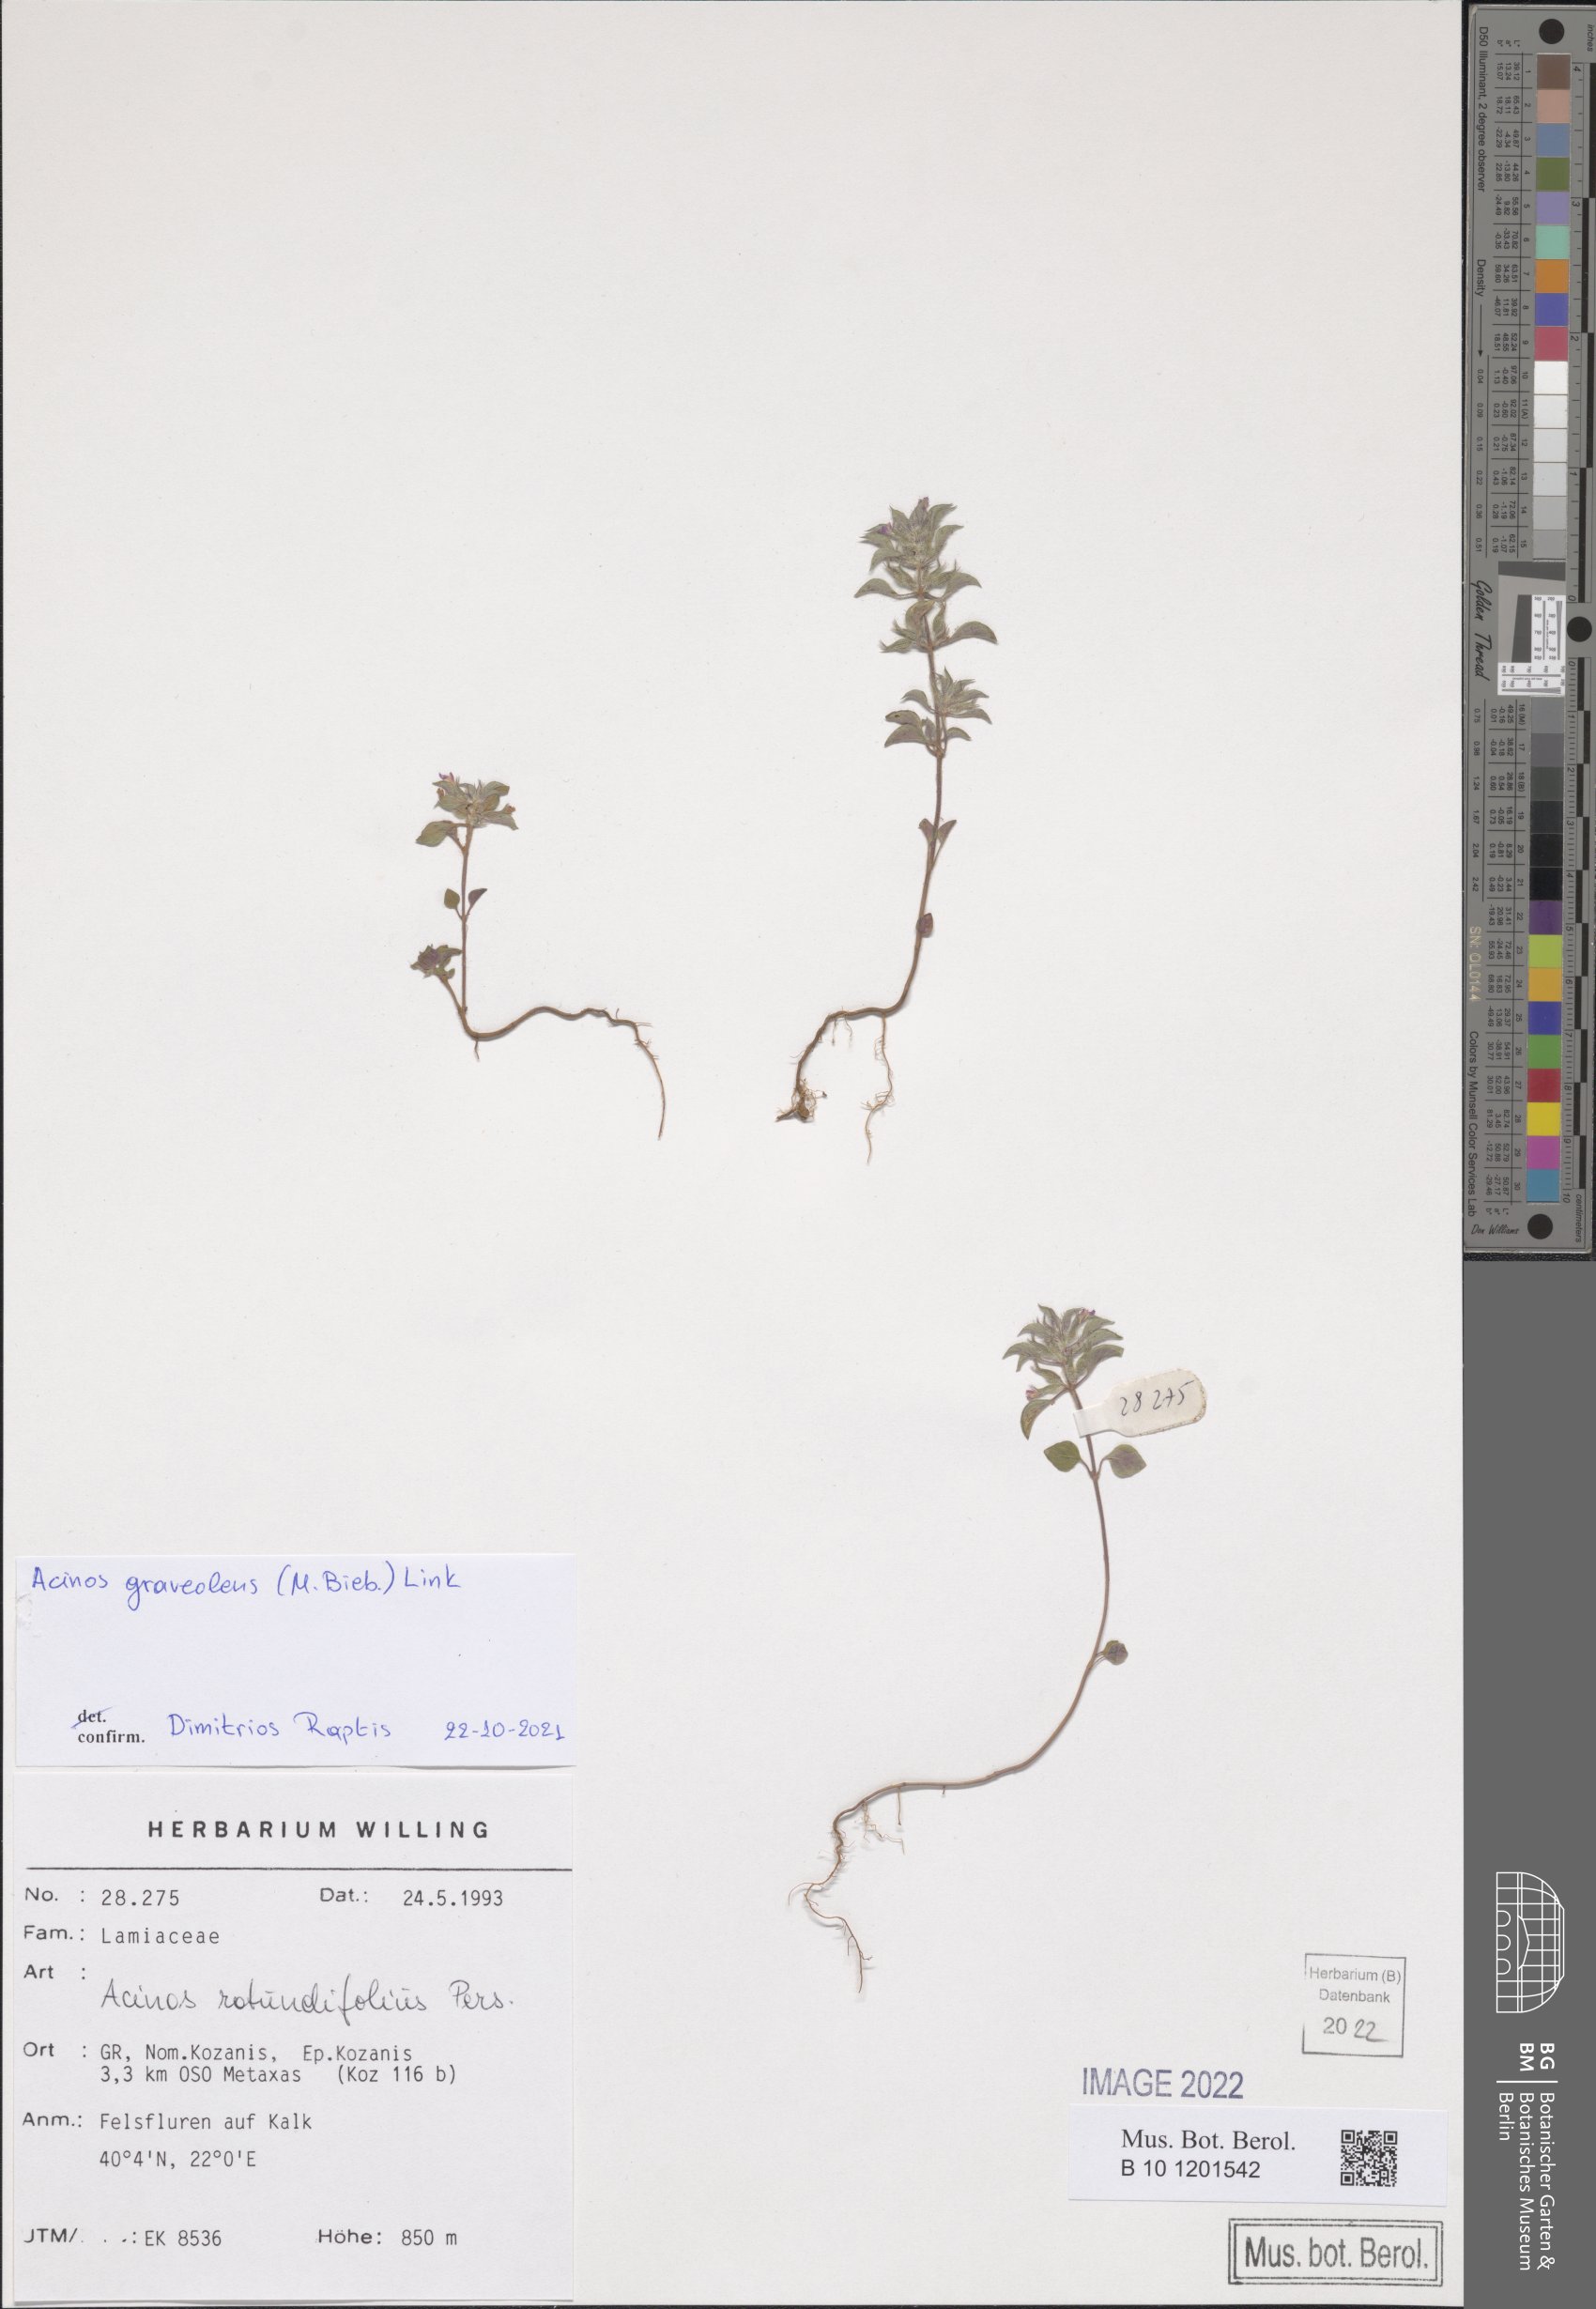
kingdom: Plantae
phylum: Tracheophyta
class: Magnoliopsida
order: Lamiales
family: Lamiaceae
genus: Clinopodium
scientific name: Clinopodium graveolens
